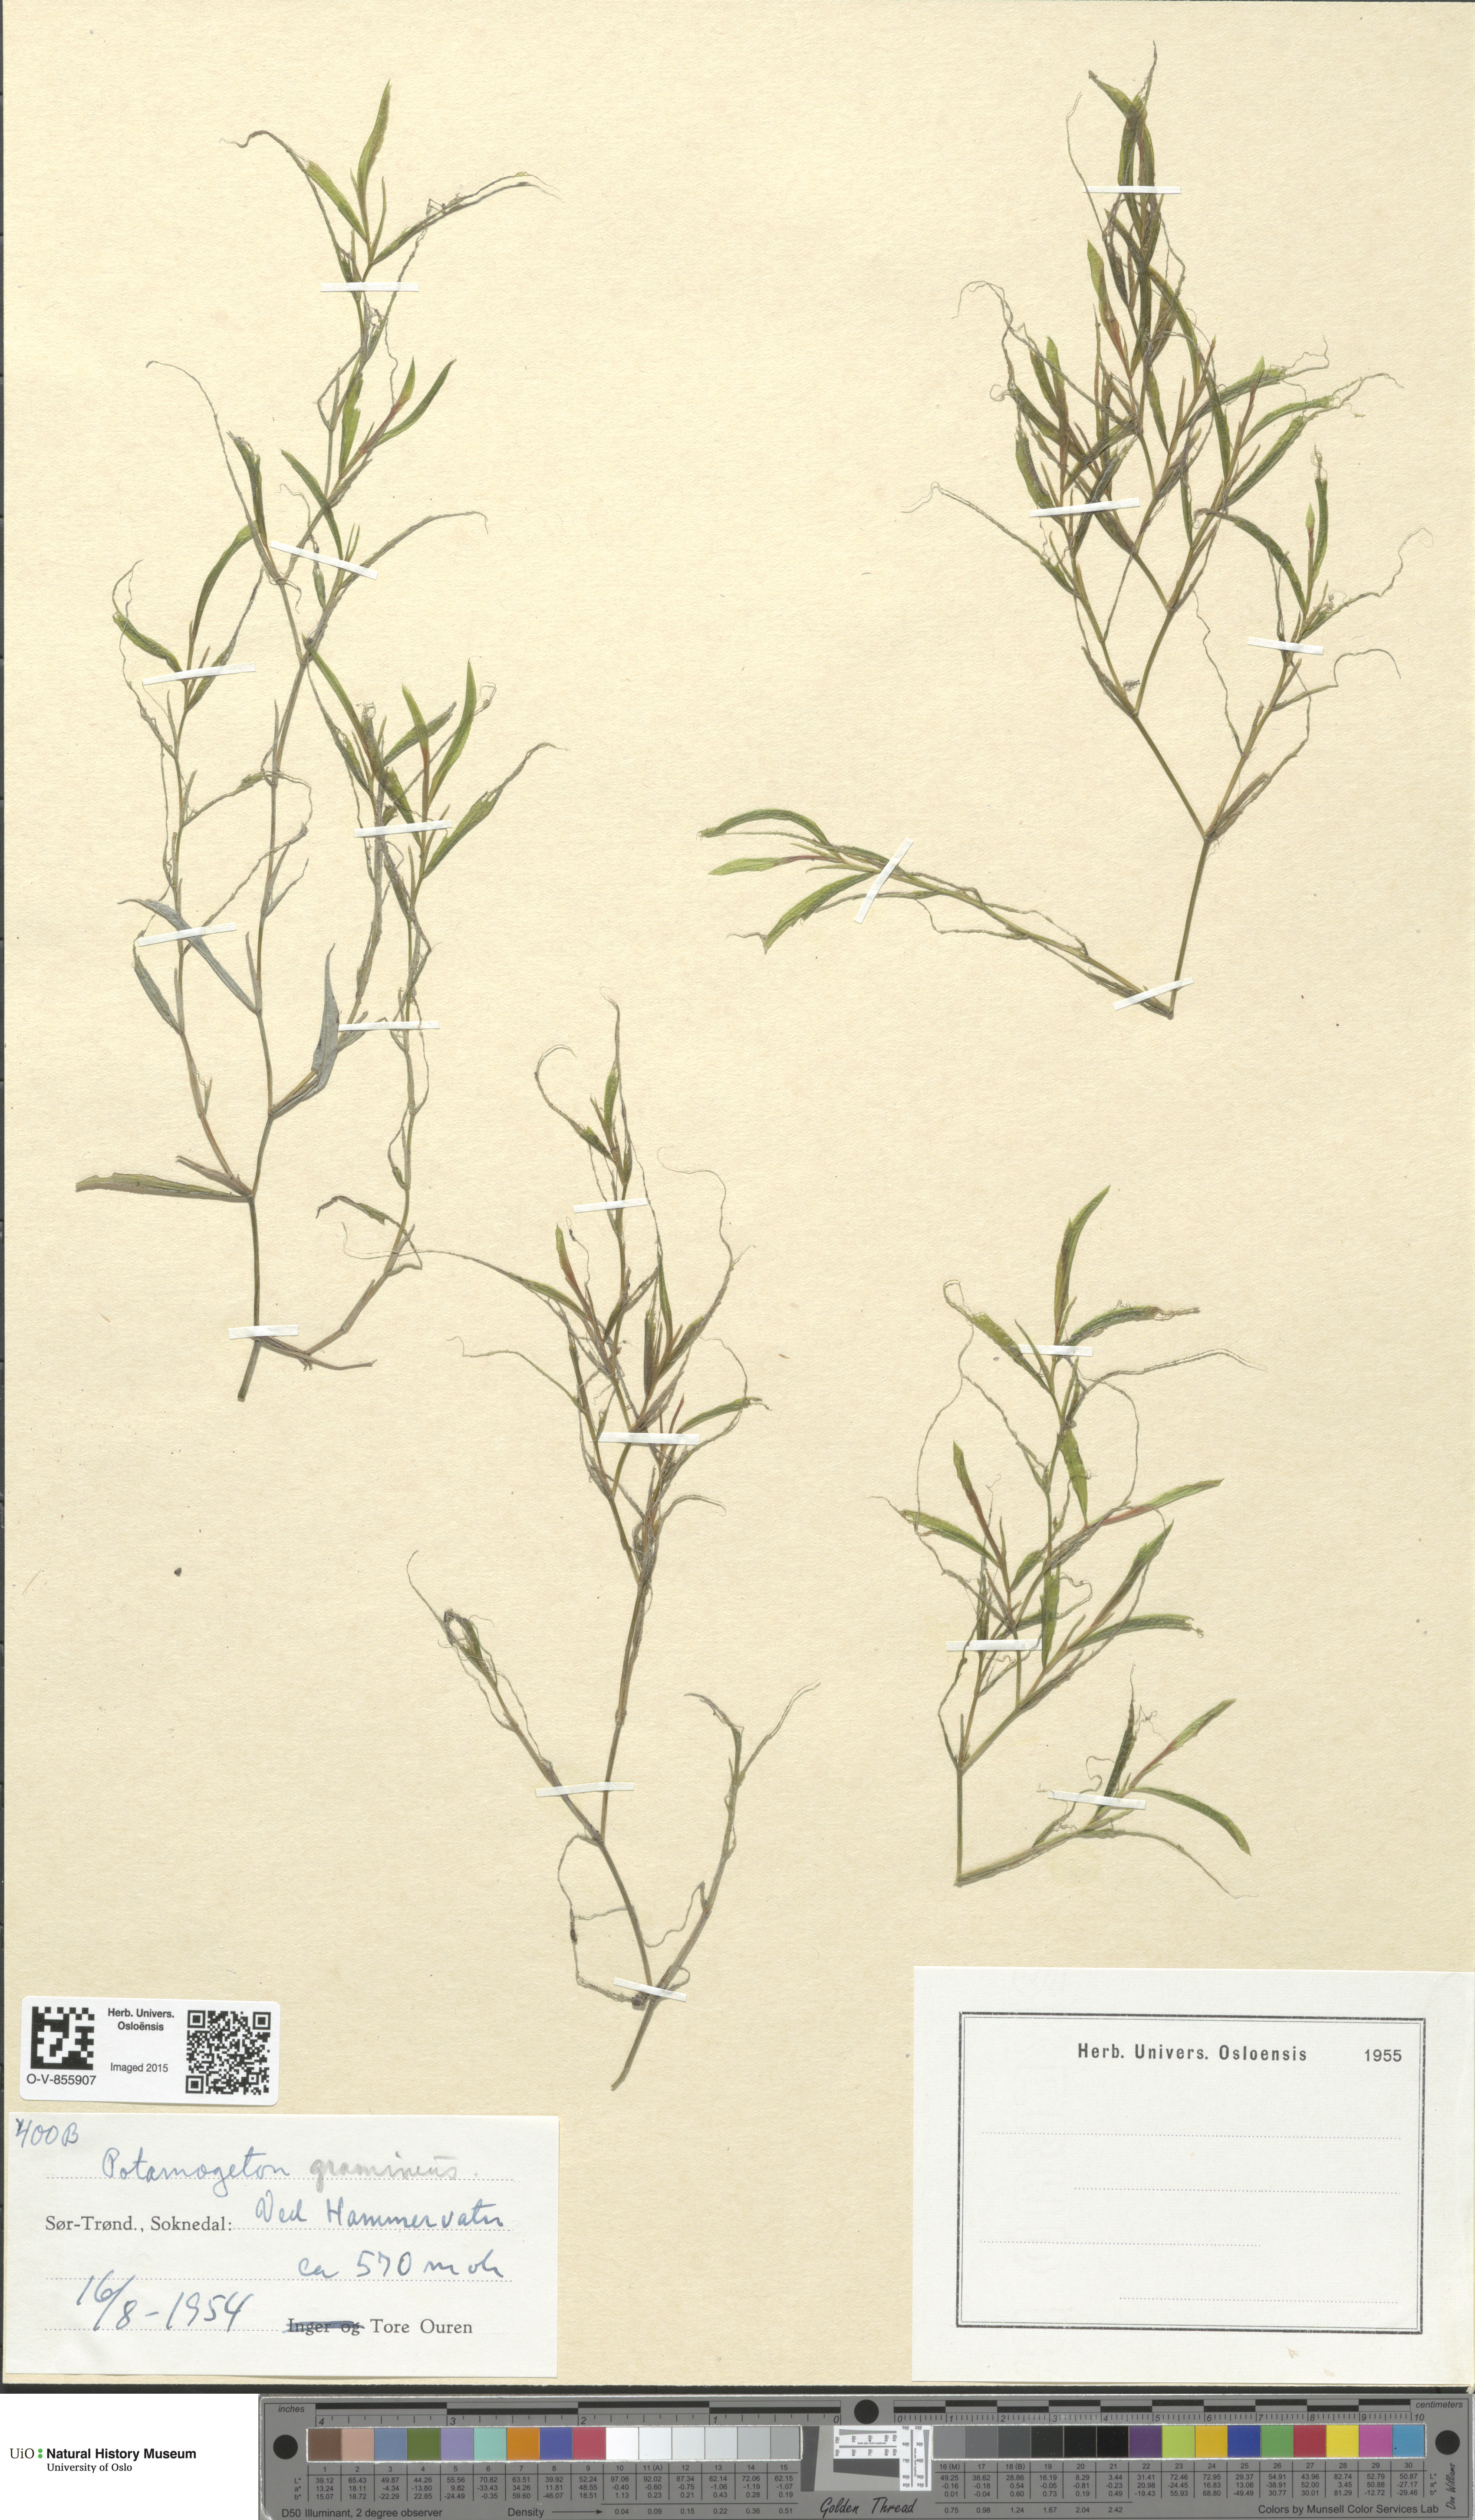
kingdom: Plantae
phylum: Tracheophyta
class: Liliopsida
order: Alismatales
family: Potamogetonaceae
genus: Potamogeton
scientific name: Potamogeton gramineus
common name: Various-leaved pondweed
